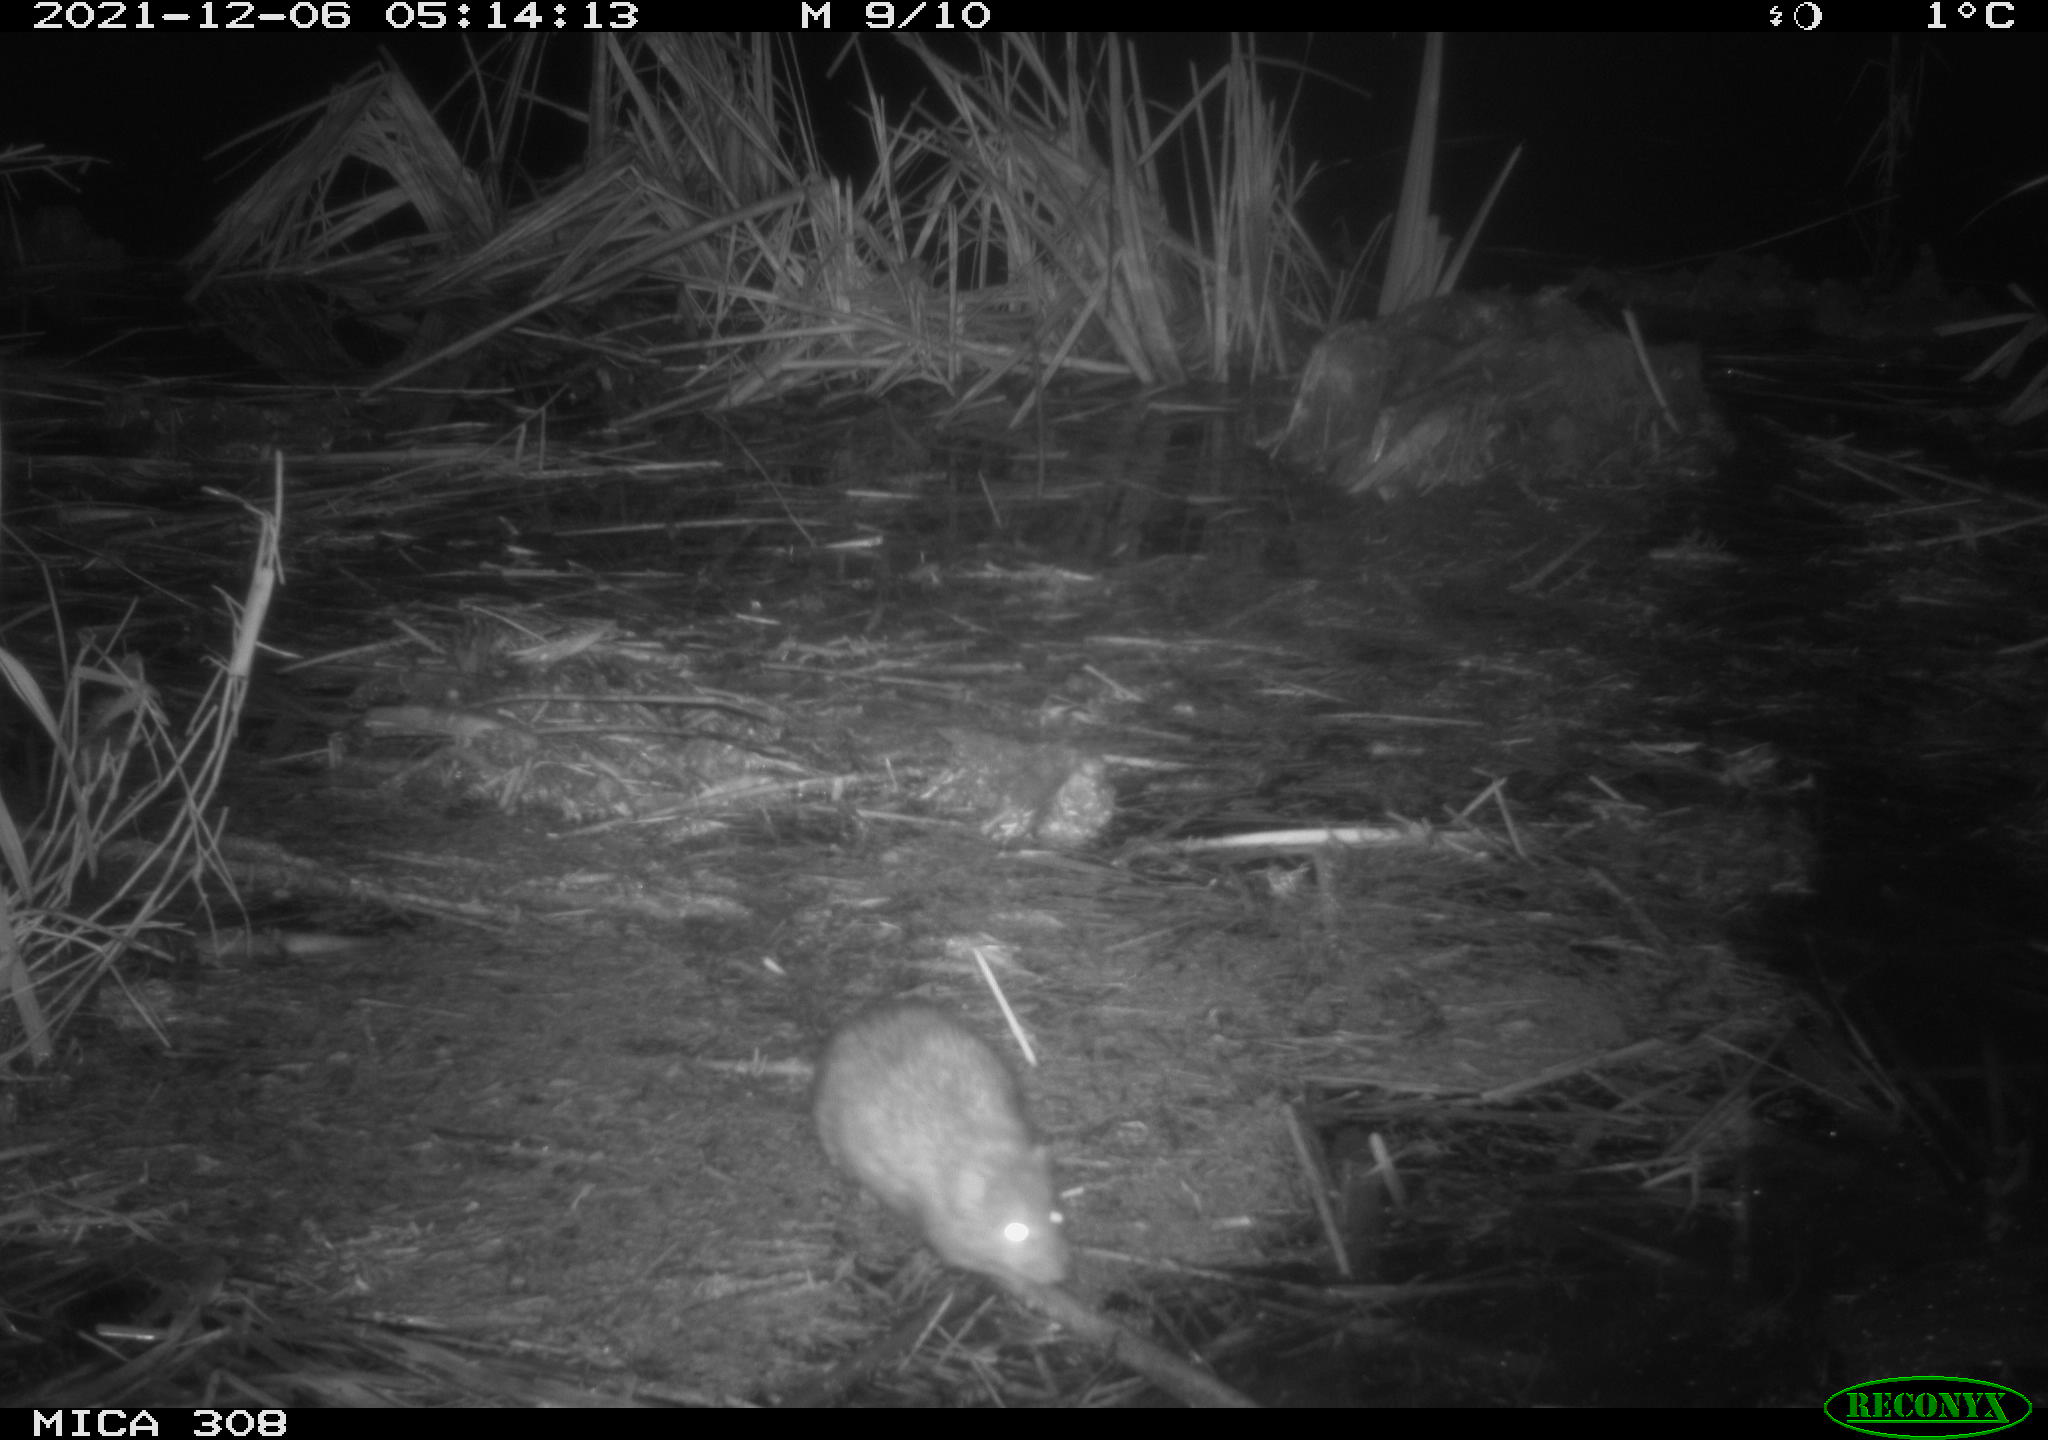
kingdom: Animalia
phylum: Chordata
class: Mammalia
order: Rodentia
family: Muridae
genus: Rattus
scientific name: Rattus norvegicus
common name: Brown rat
